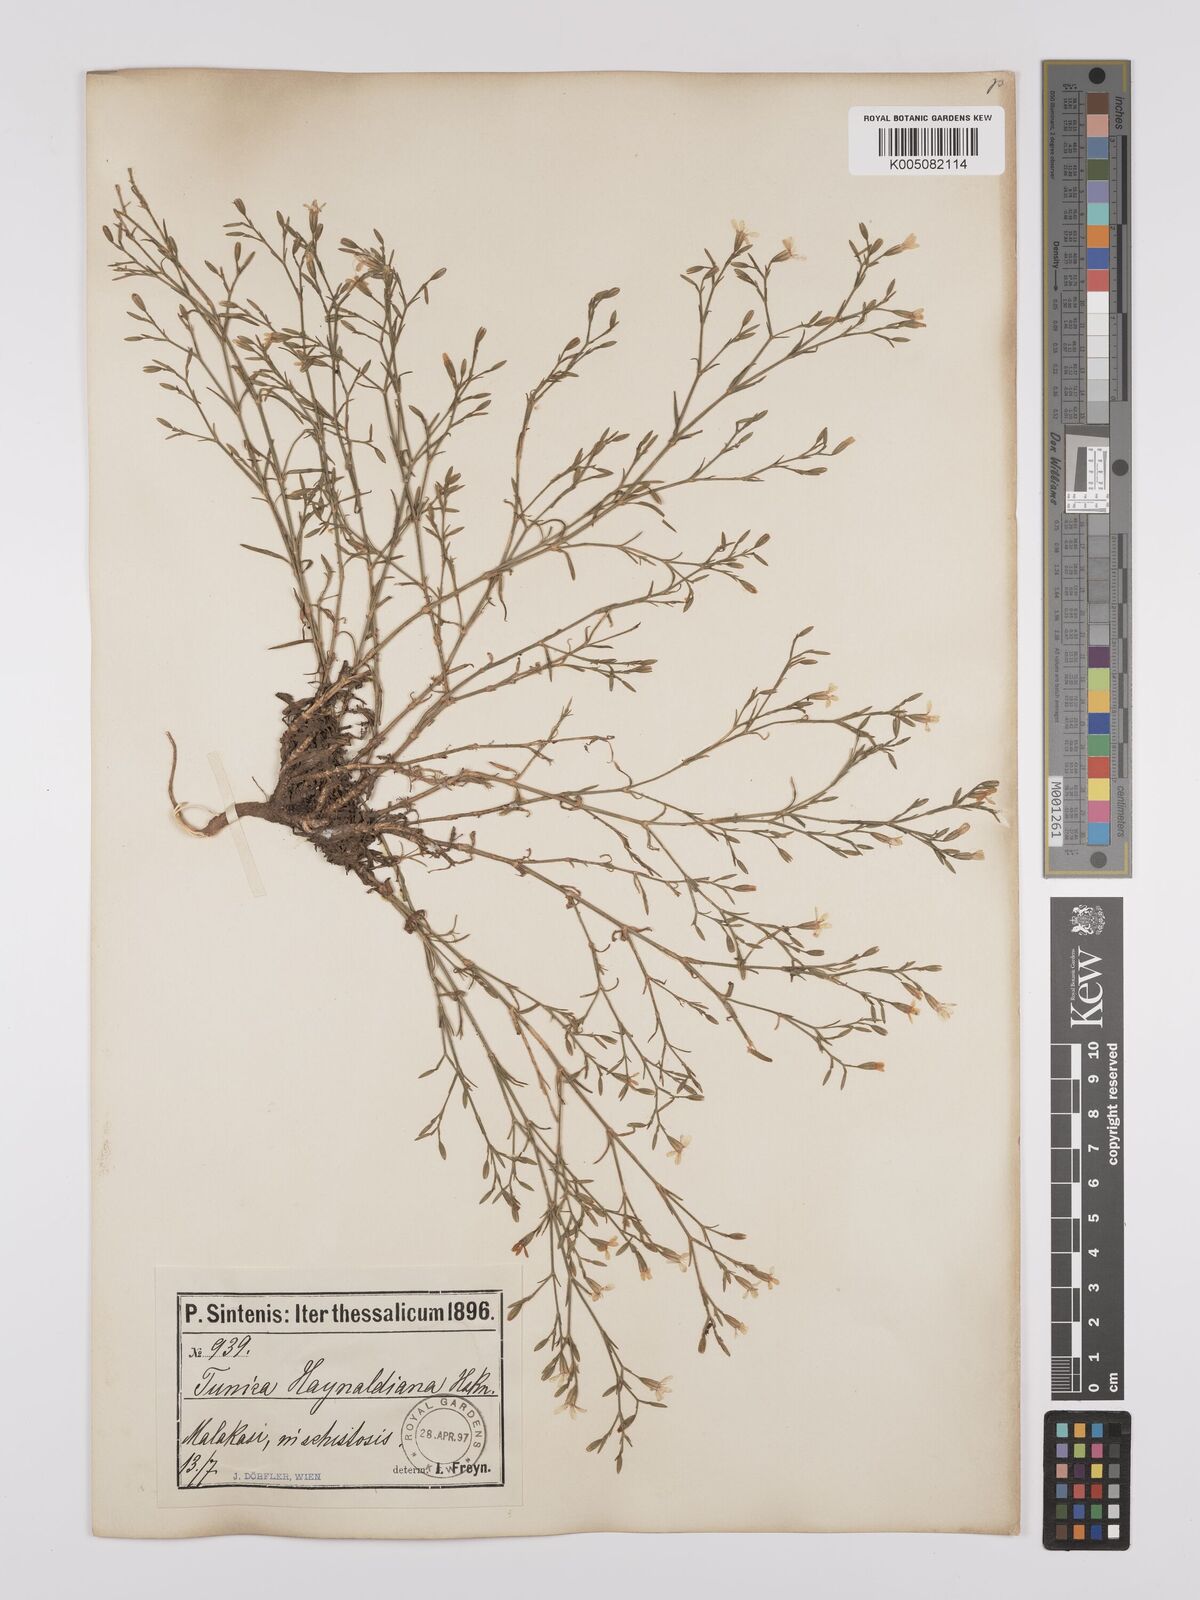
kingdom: Plantae
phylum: Tracheophyta
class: Magnoliopsida
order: Caryophyllales
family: Caryophyllaceae
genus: Dianthus
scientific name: Dianthus illyricus
